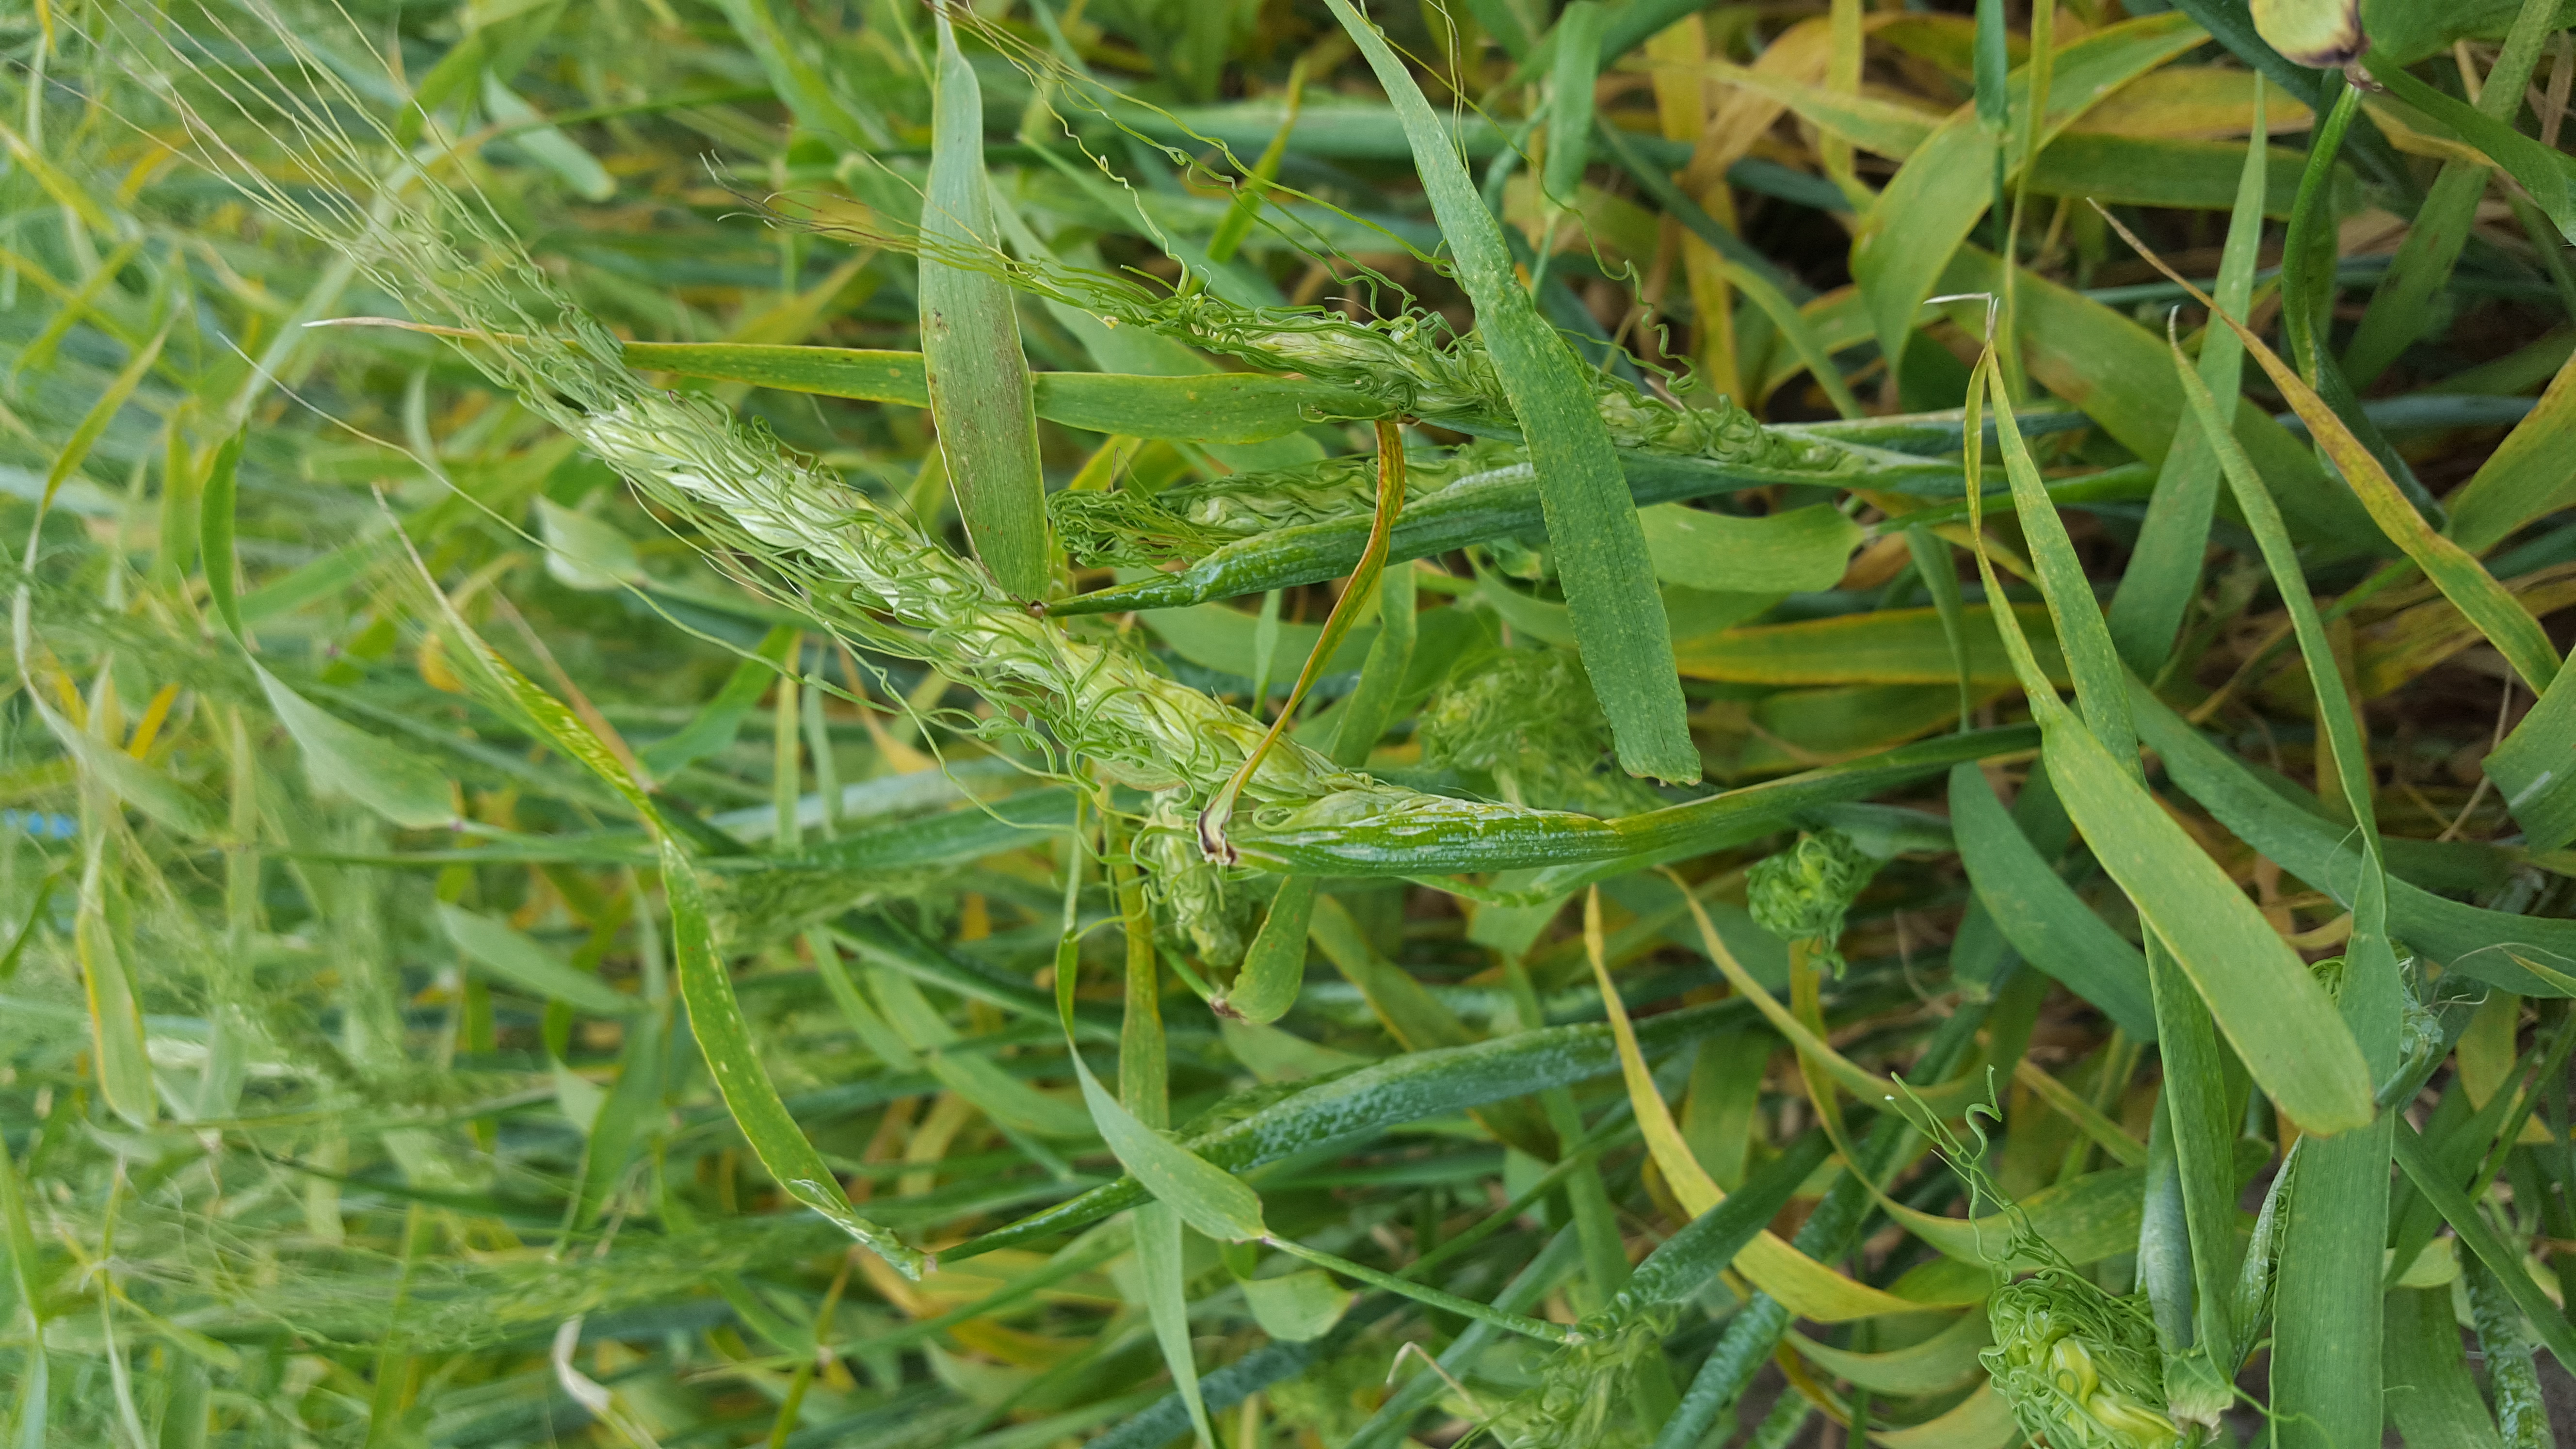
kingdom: Plantae
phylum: Tracheophyta
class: Liliopsida
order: Poales
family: Poaceae
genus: Hordeum
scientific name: Hordeum vulgare
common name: Common barley
